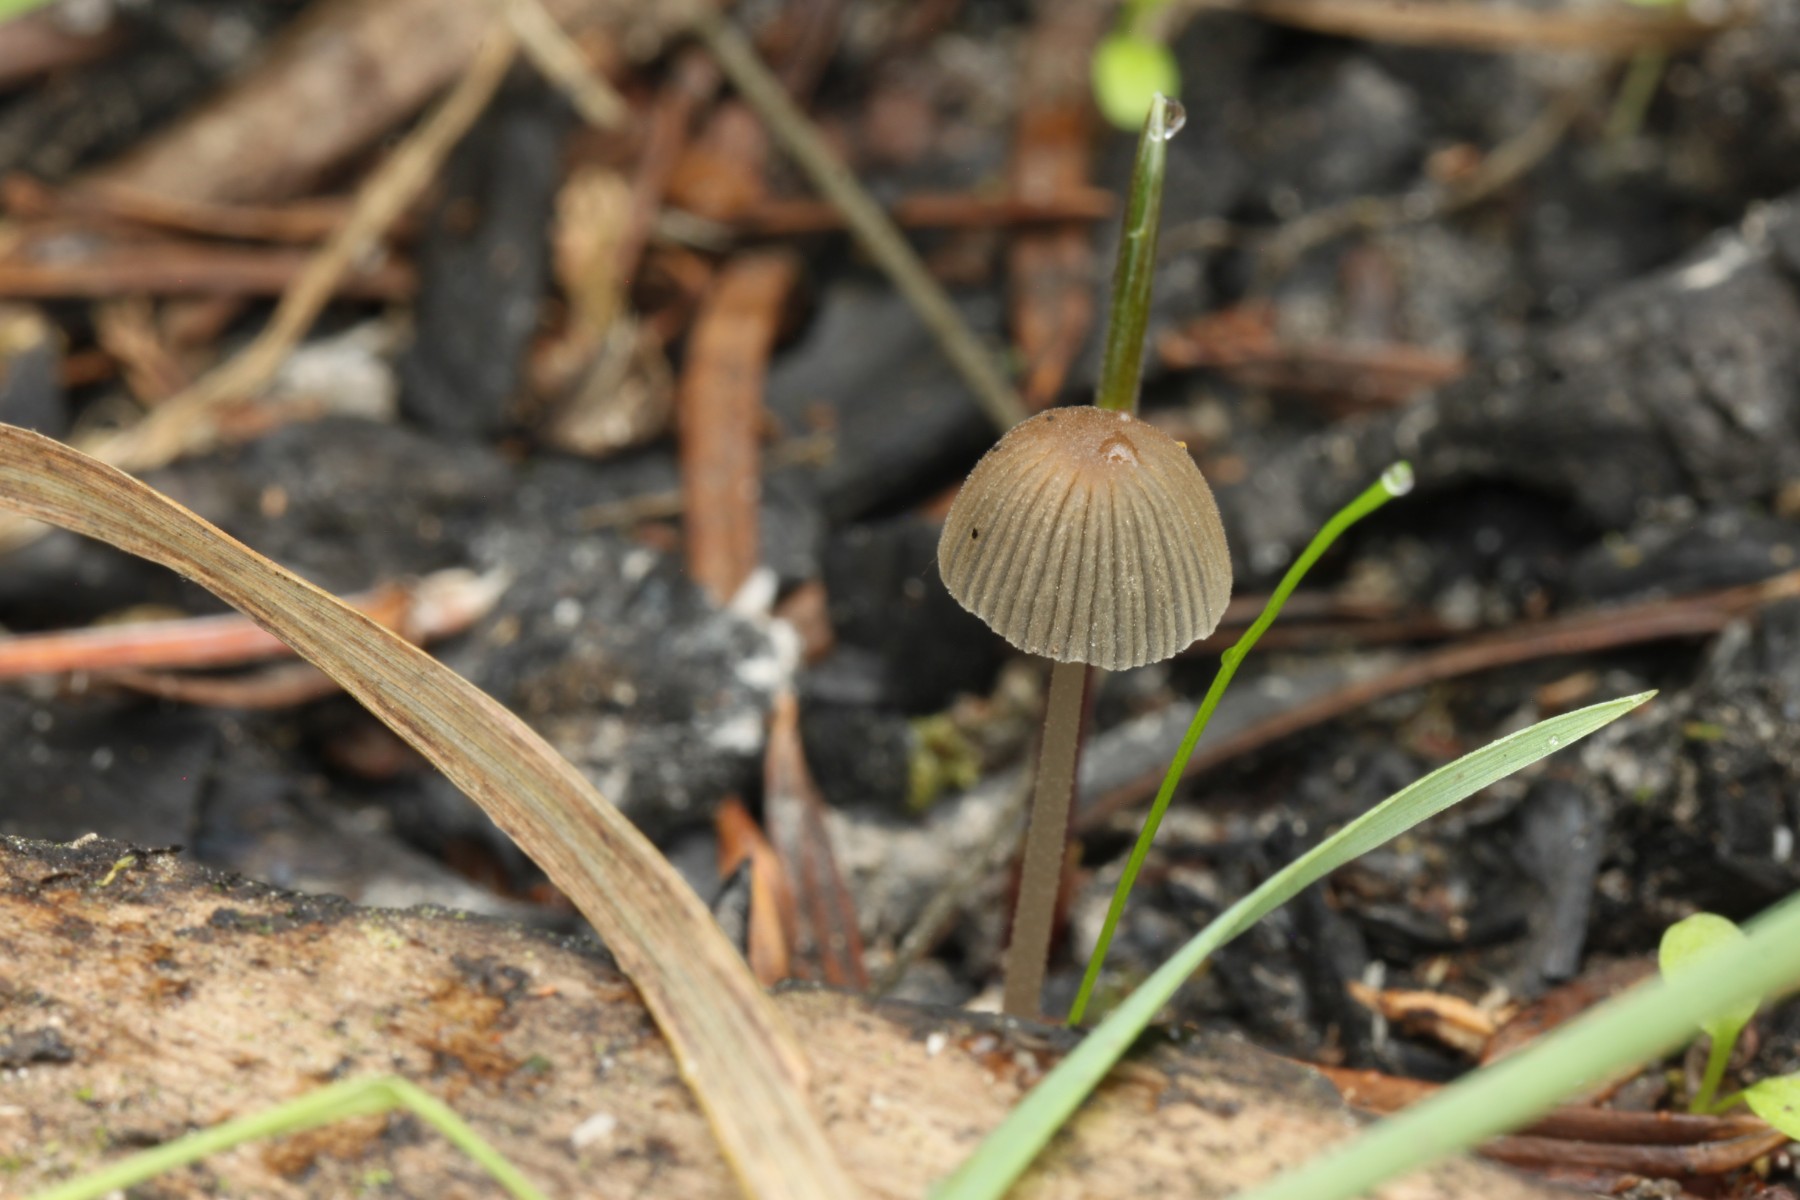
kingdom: Fungi
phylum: Basidiomycota
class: Agaricomycetes
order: Agaricales
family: Psathyrellaceae
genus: Tulosesus
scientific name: Tulosesus angulatus
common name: kul-blækhat
